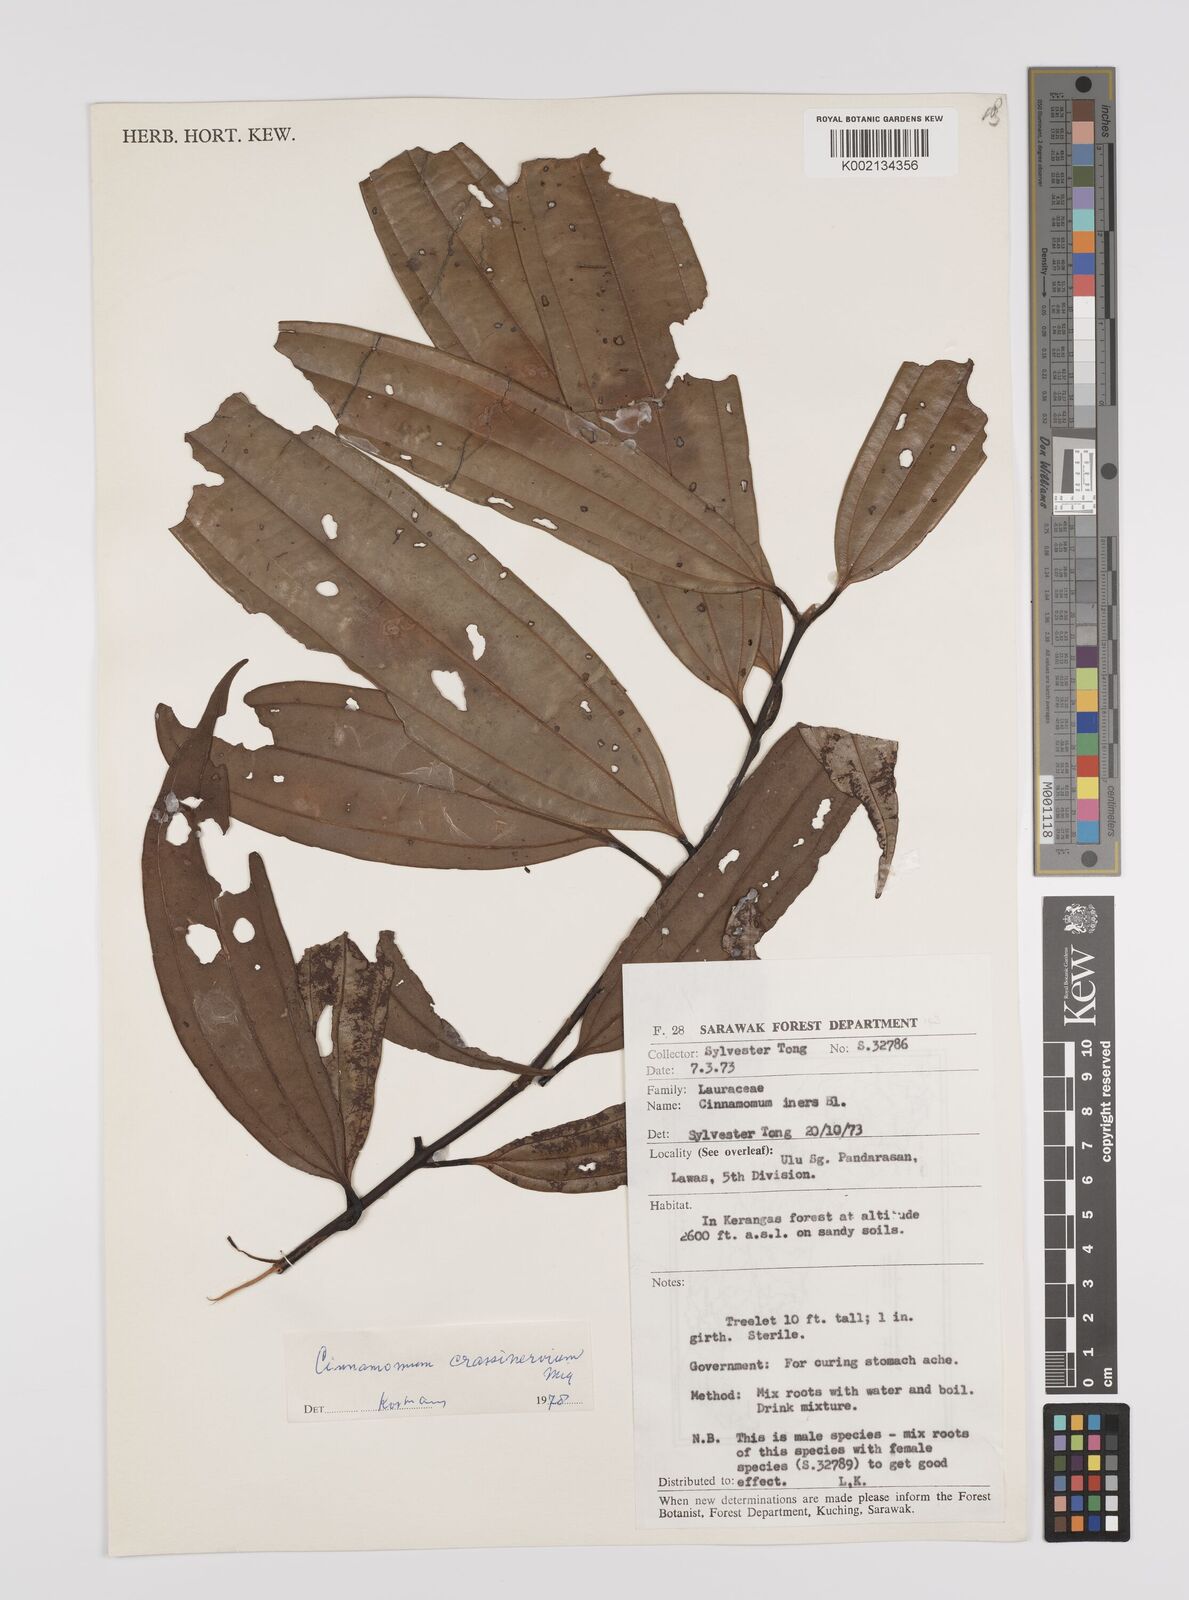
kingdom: Plantae
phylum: Tracheophyta
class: Magnoliopsida
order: Laurales
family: Lauraceae
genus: Cinnamomum
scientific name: Cinnamomum crassinervium
